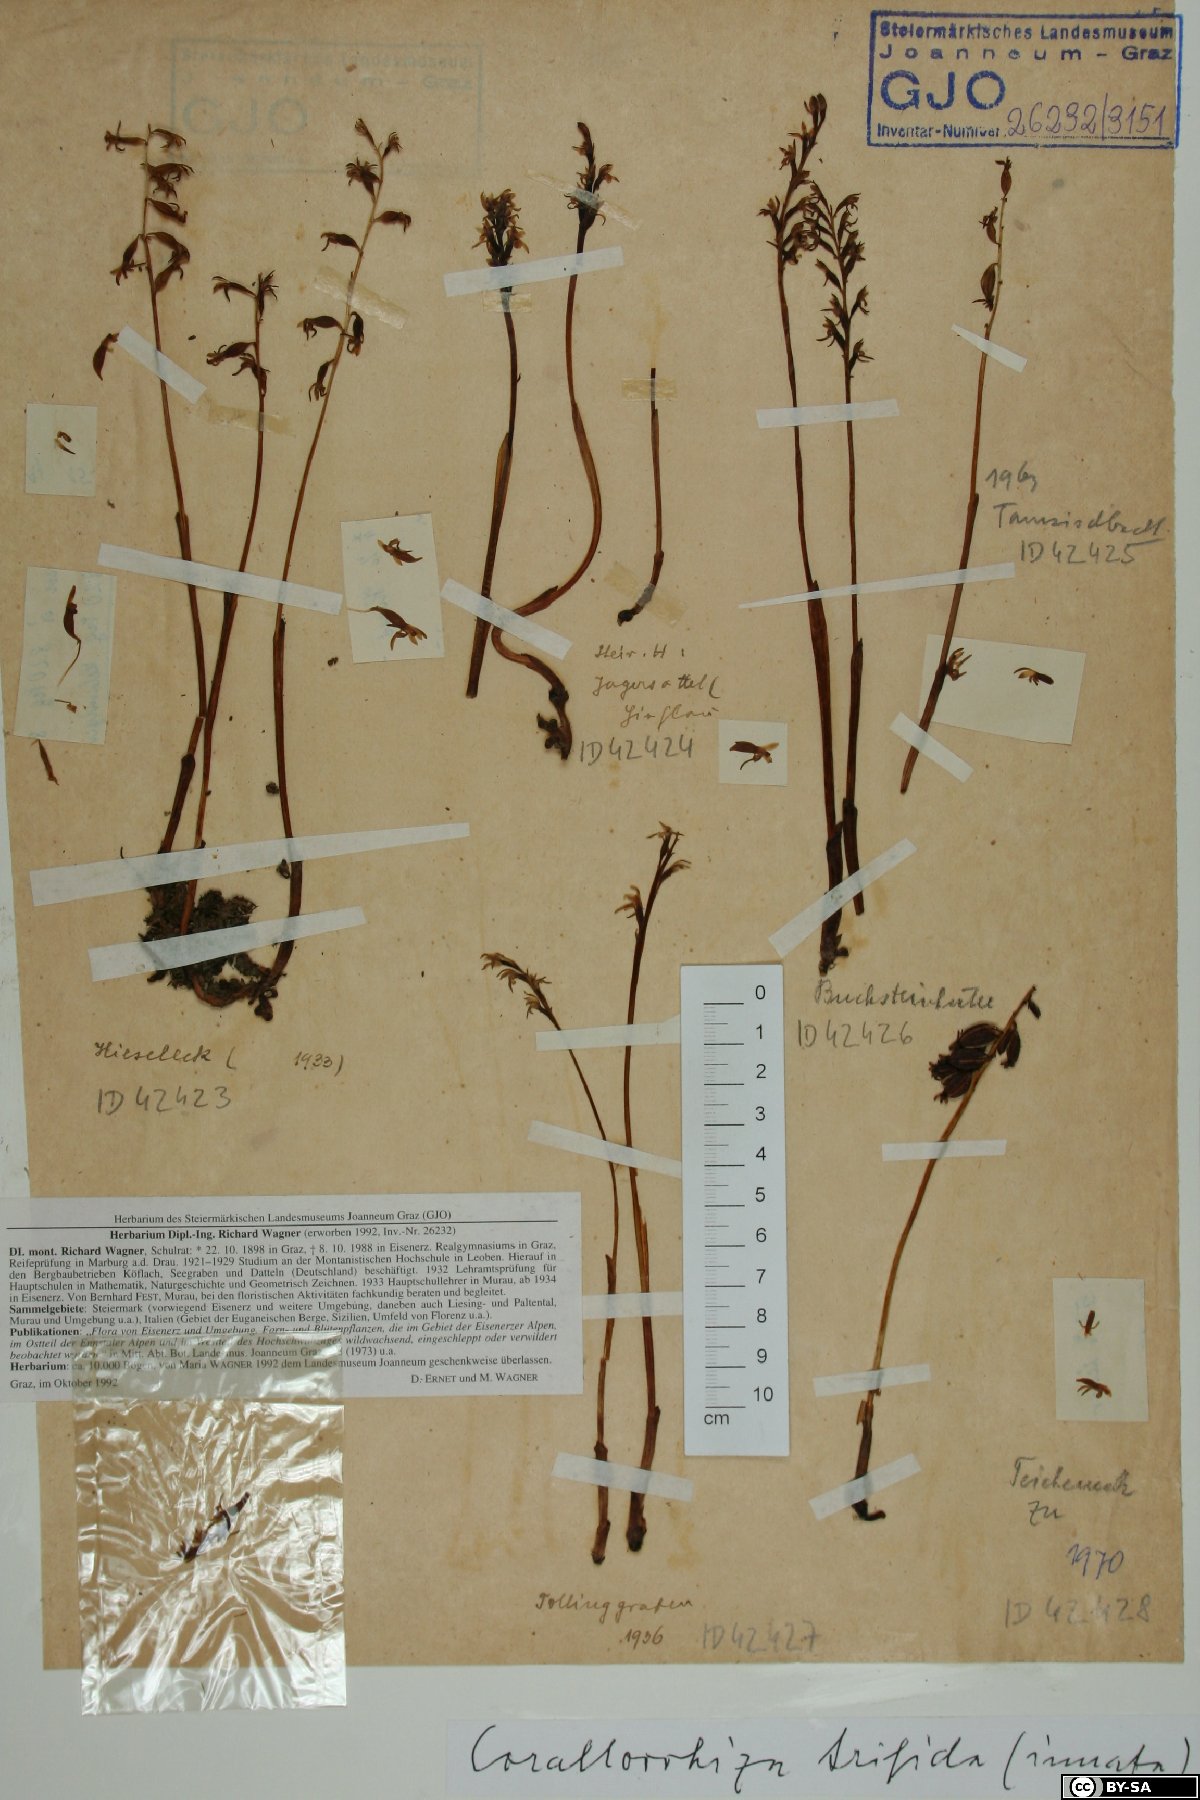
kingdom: Plantae
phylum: Tracheophyta
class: Liliopsida
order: Asparagales
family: Orchidaceae
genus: Corallorhiza
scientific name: Corallorhiza trifida
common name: Yellow coralroot
